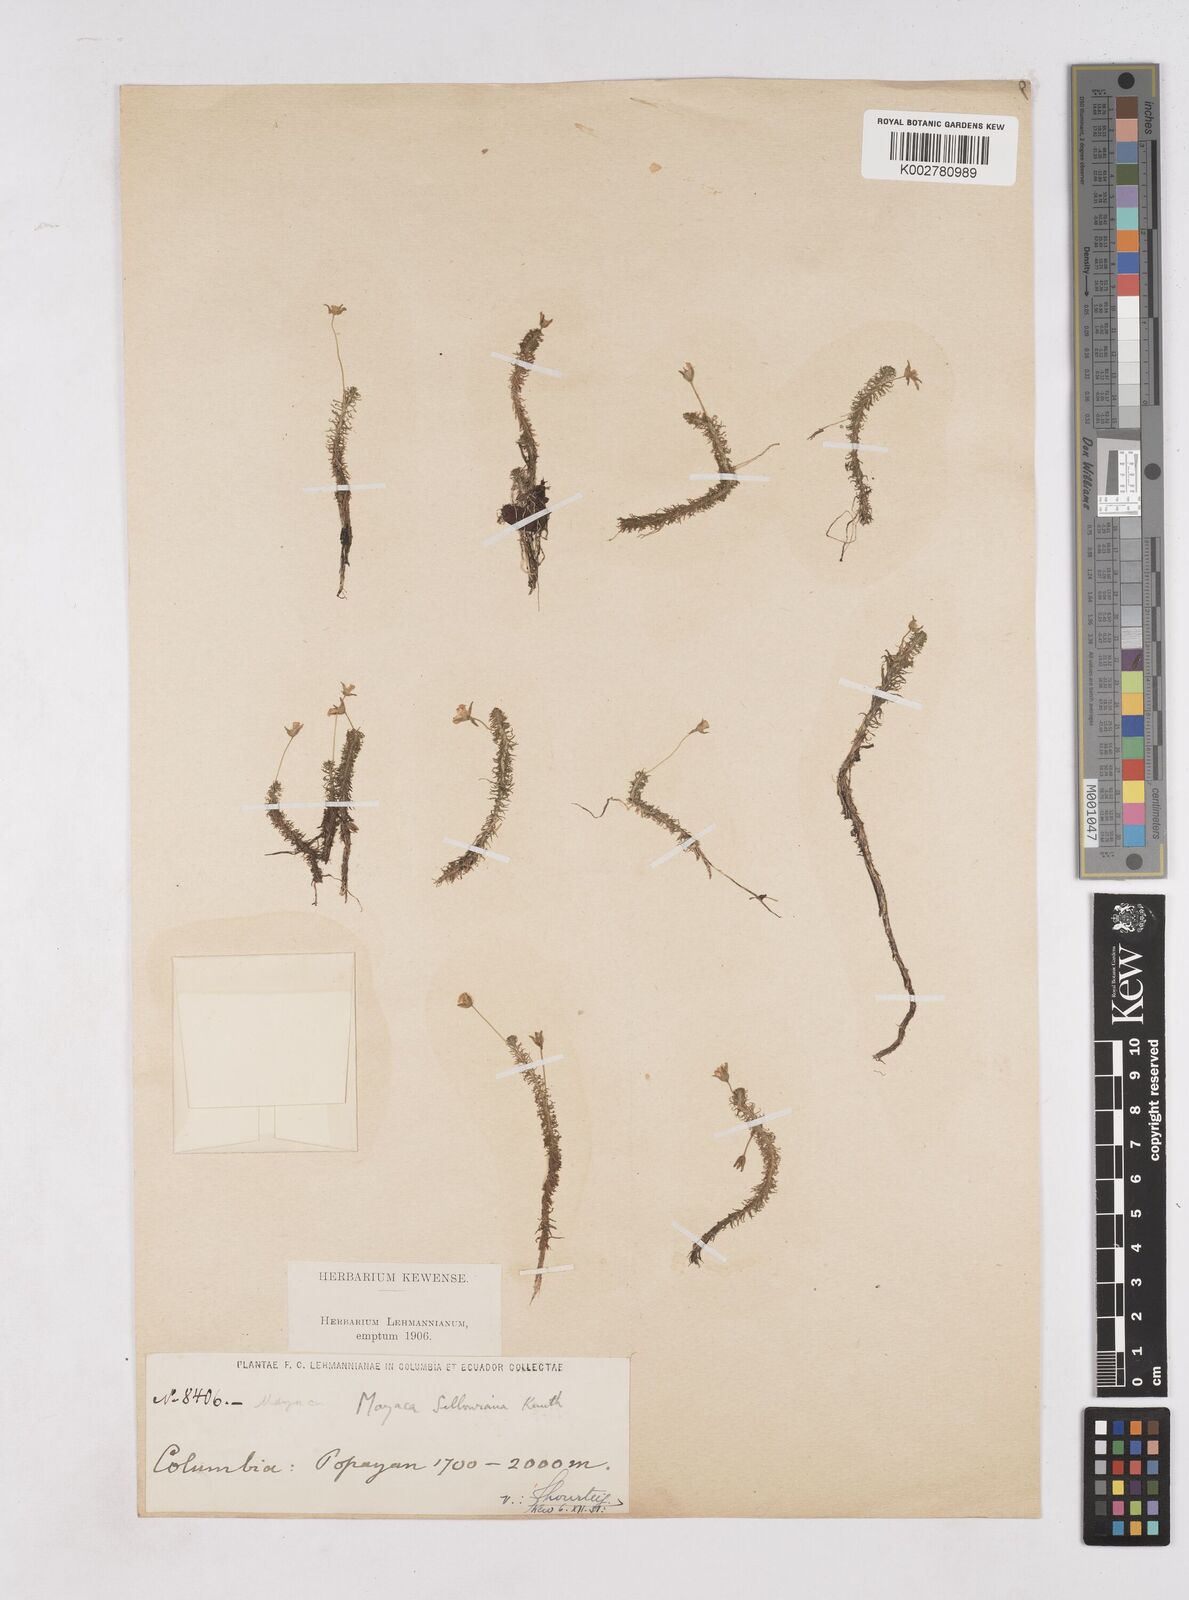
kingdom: Plantae
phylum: Tracheophyta
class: Liliopsida
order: Poales
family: Mayacaceae
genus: Mayaca
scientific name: Mayaca sellowiana
